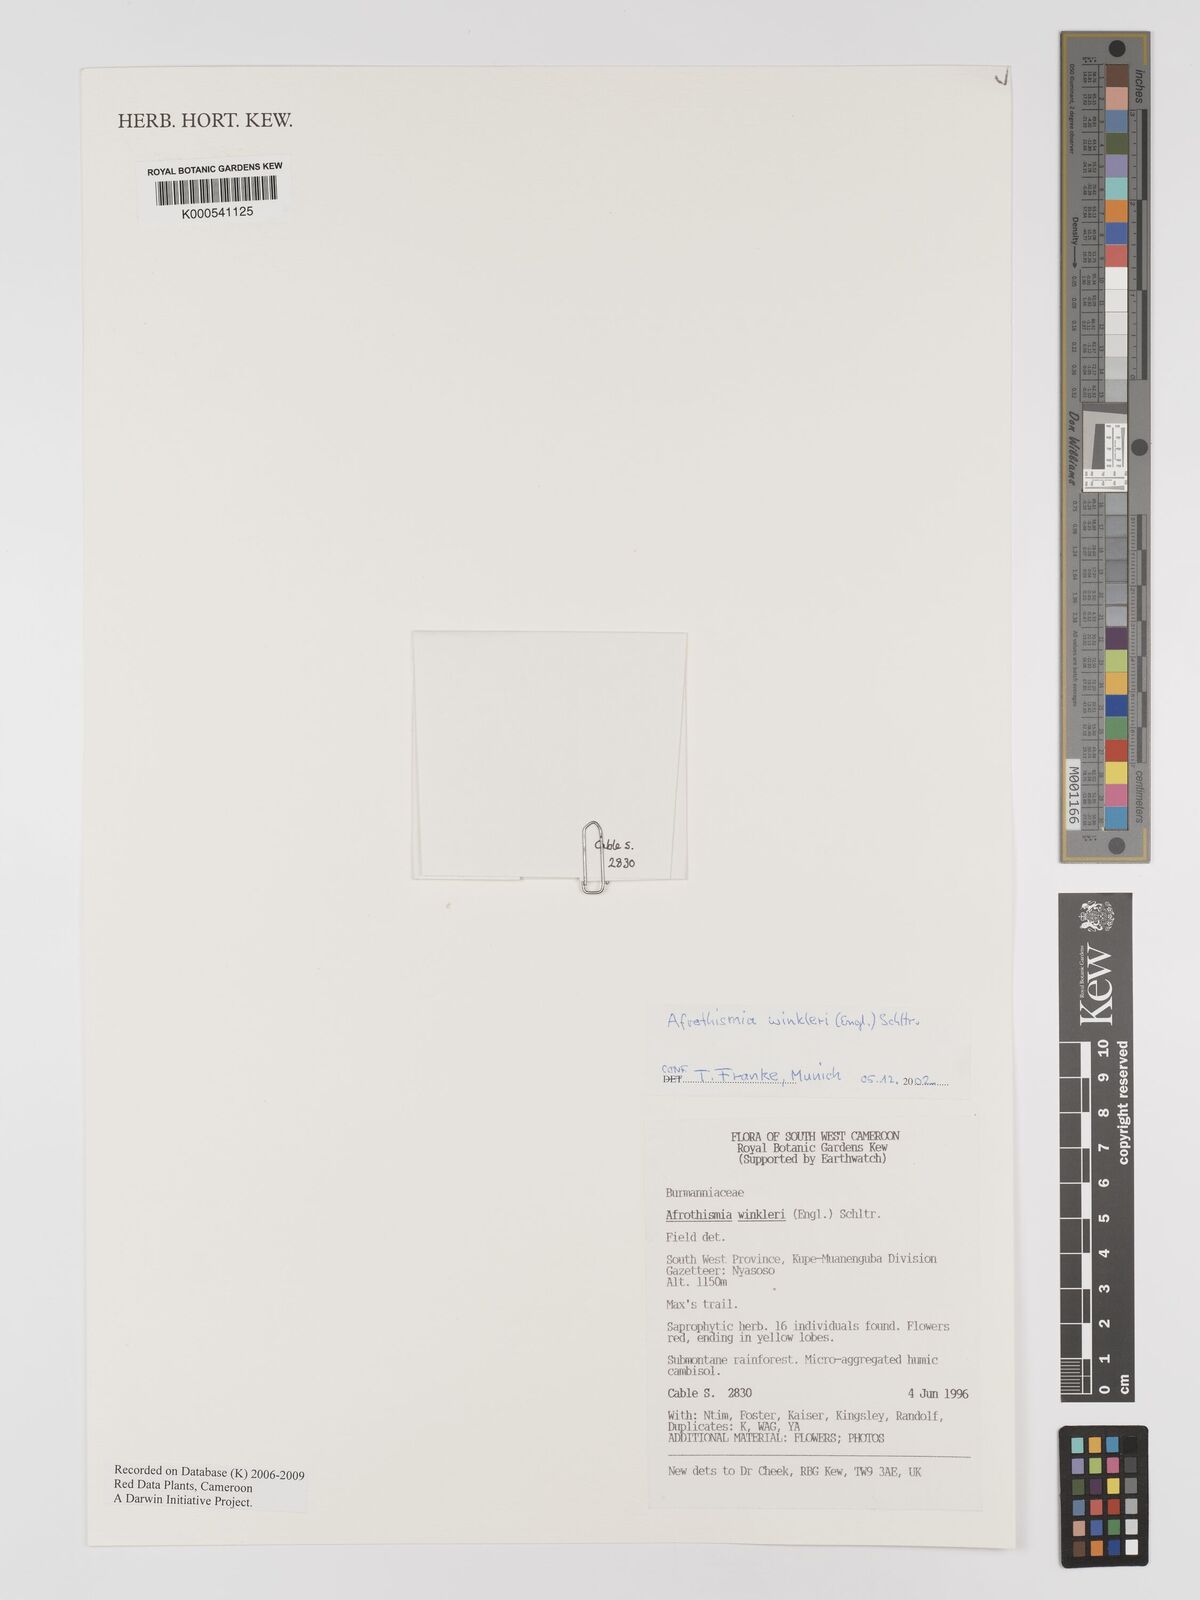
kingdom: Plantae
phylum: Tracheophyta
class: Liliopsida
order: Dioscoreales
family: Burmanniaceae
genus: Afrothismia
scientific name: Afrothismia winkleri
